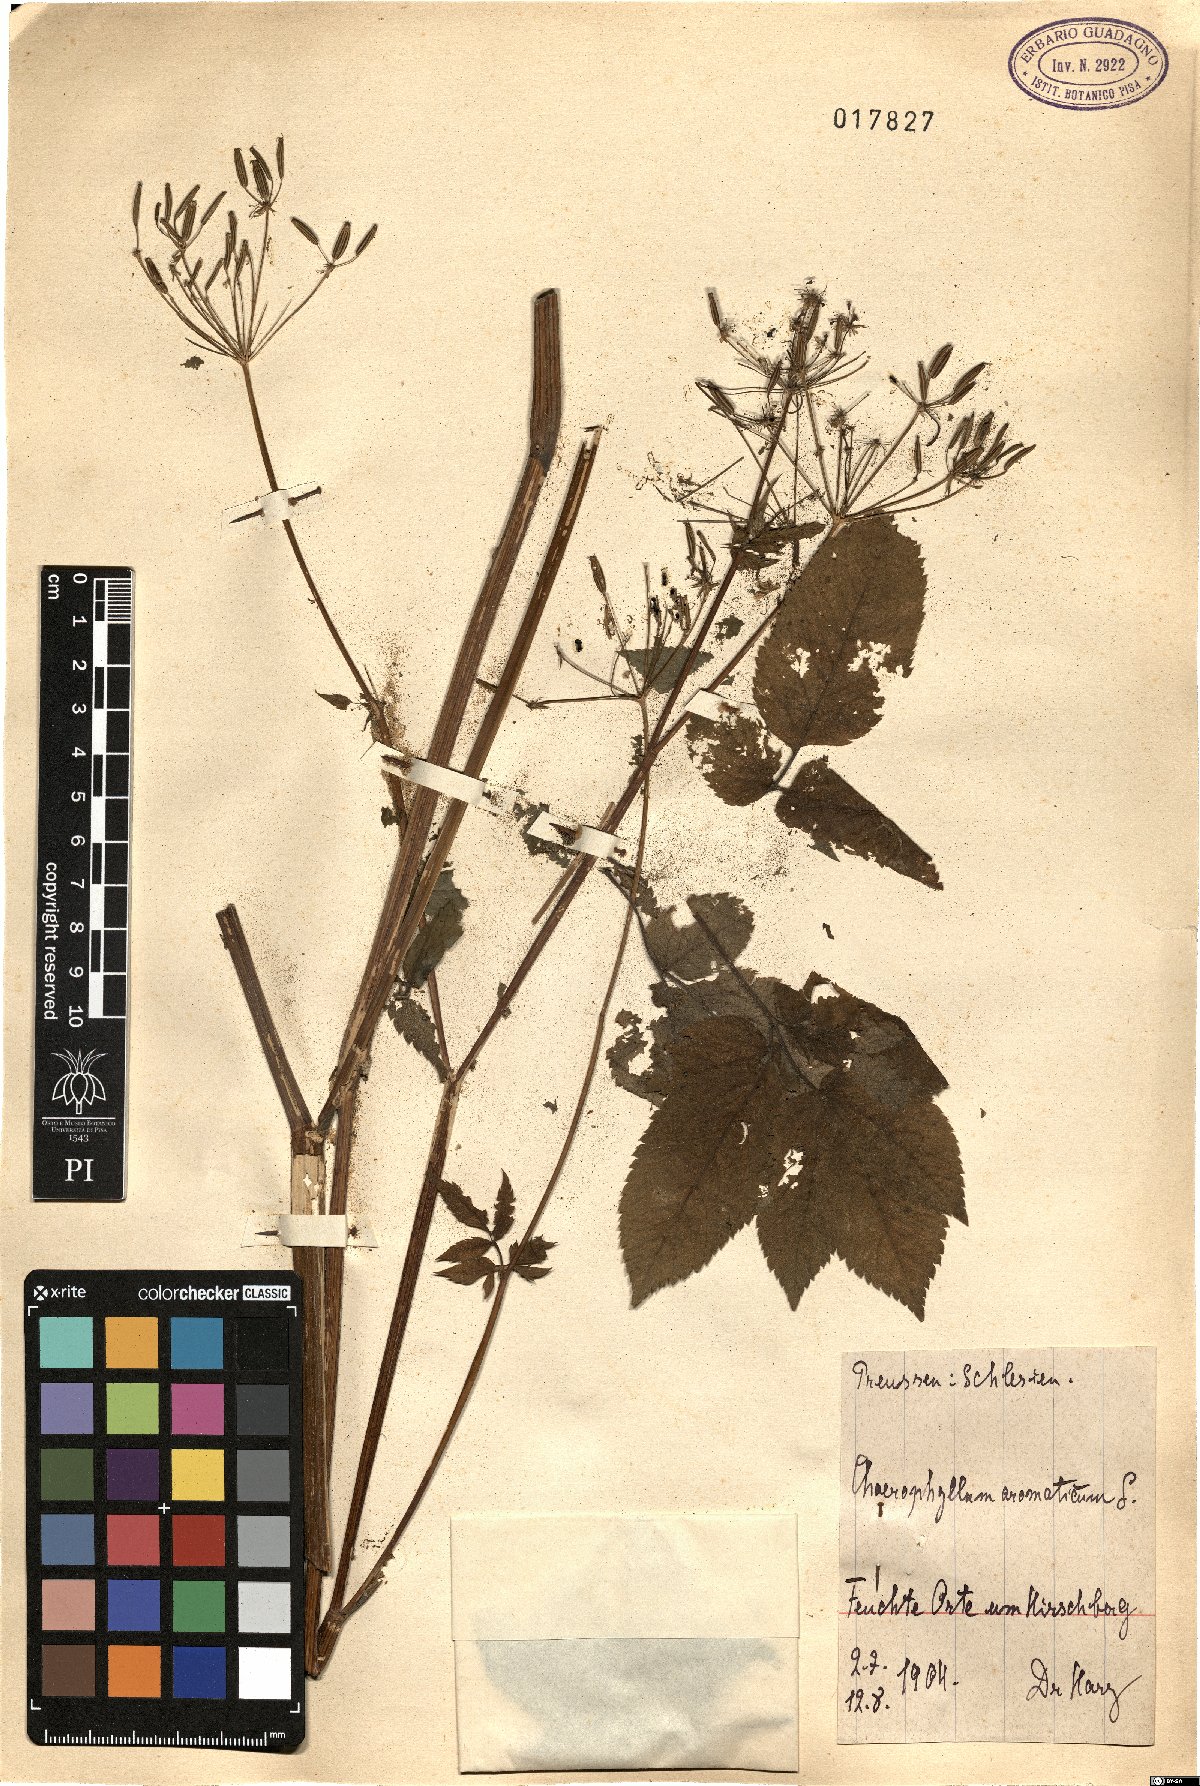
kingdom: Plantae
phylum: Tracheophyta
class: Magnoliopsida
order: Apiales
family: Apiaceae
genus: Chaerophyllum
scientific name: Chaerophyllum aromaticum
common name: Broadleaf chervil
